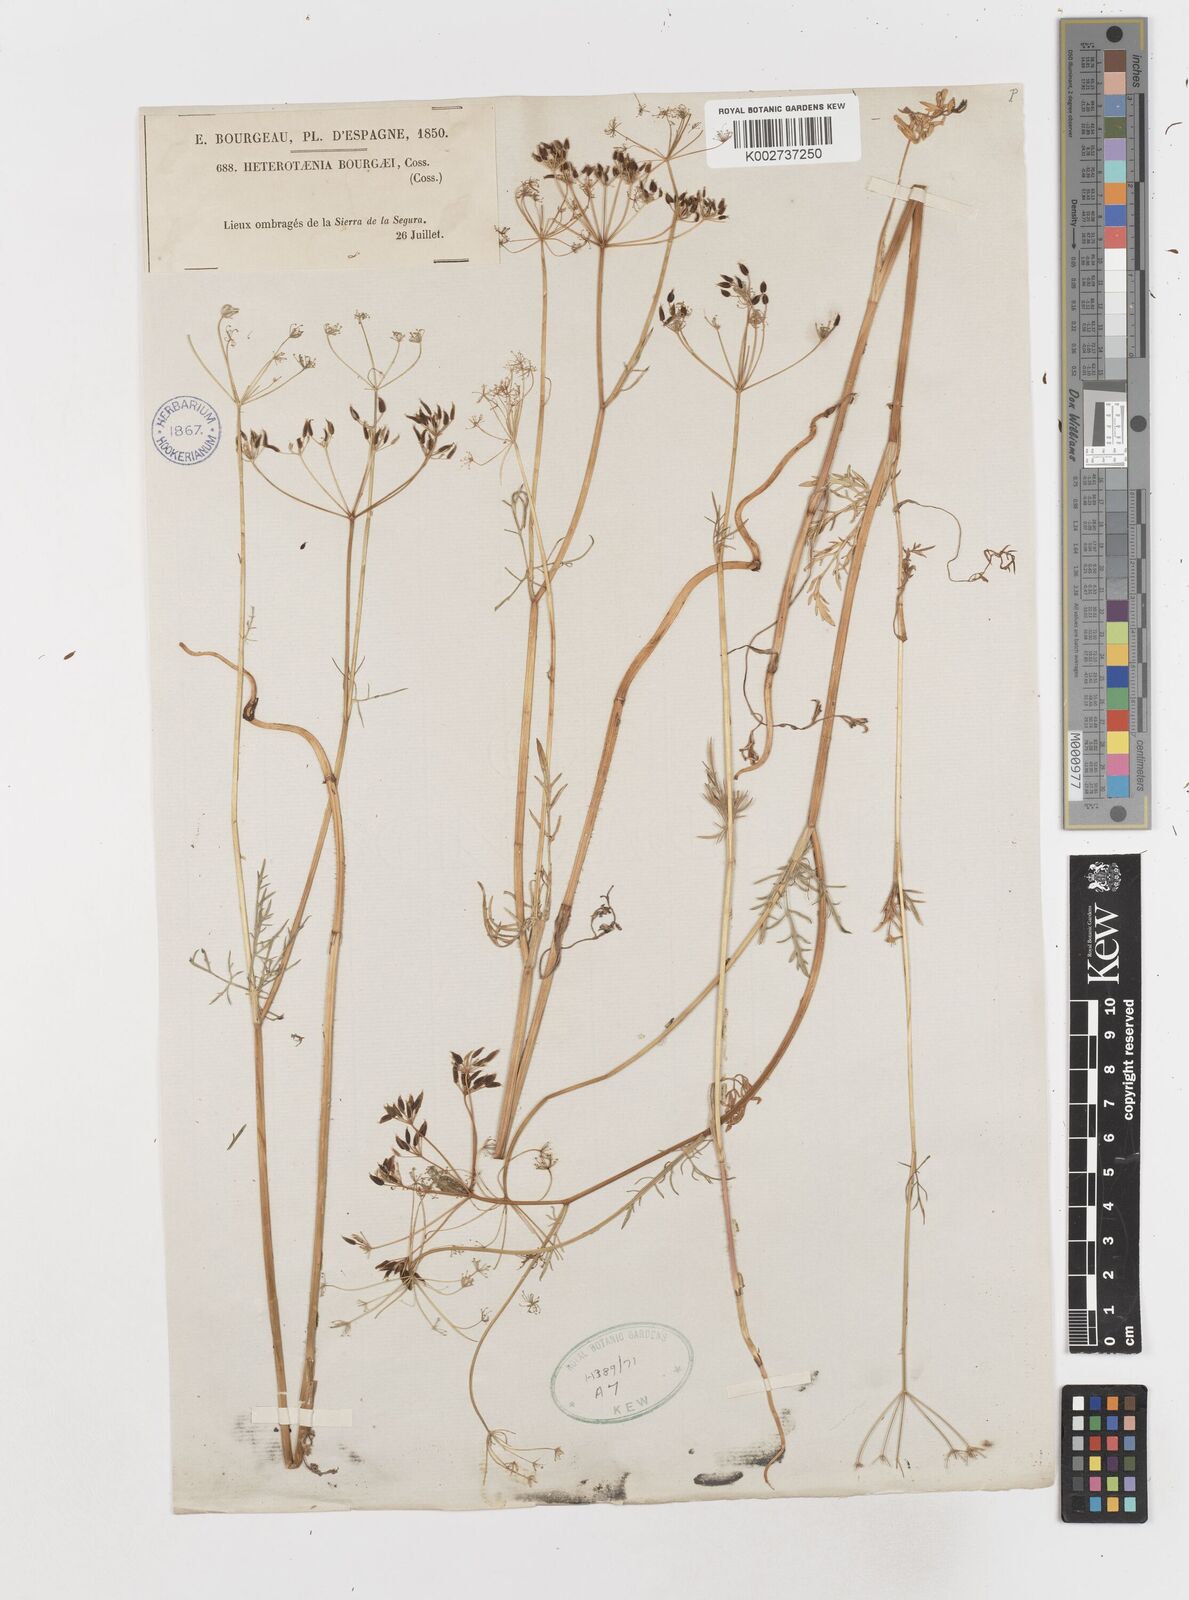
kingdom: Plantae
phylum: Tracheophyta
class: Magnoliopsida
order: Apiales
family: Apiaceae
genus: Conopodium
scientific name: Conopodium pyrenaeum
